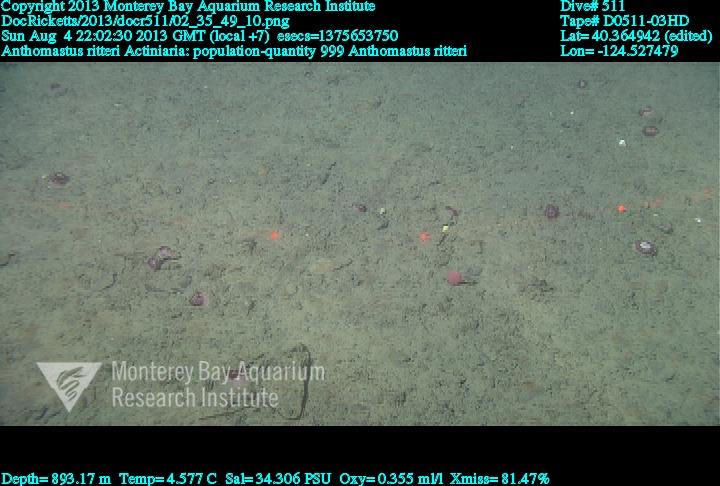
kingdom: Animalia
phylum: Cnidaria
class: Anthozoa
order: Scleralcyonacea
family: Coralliidae
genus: Heteropolypus
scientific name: Heteropolypus ritteri
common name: Ritter's soft coral
